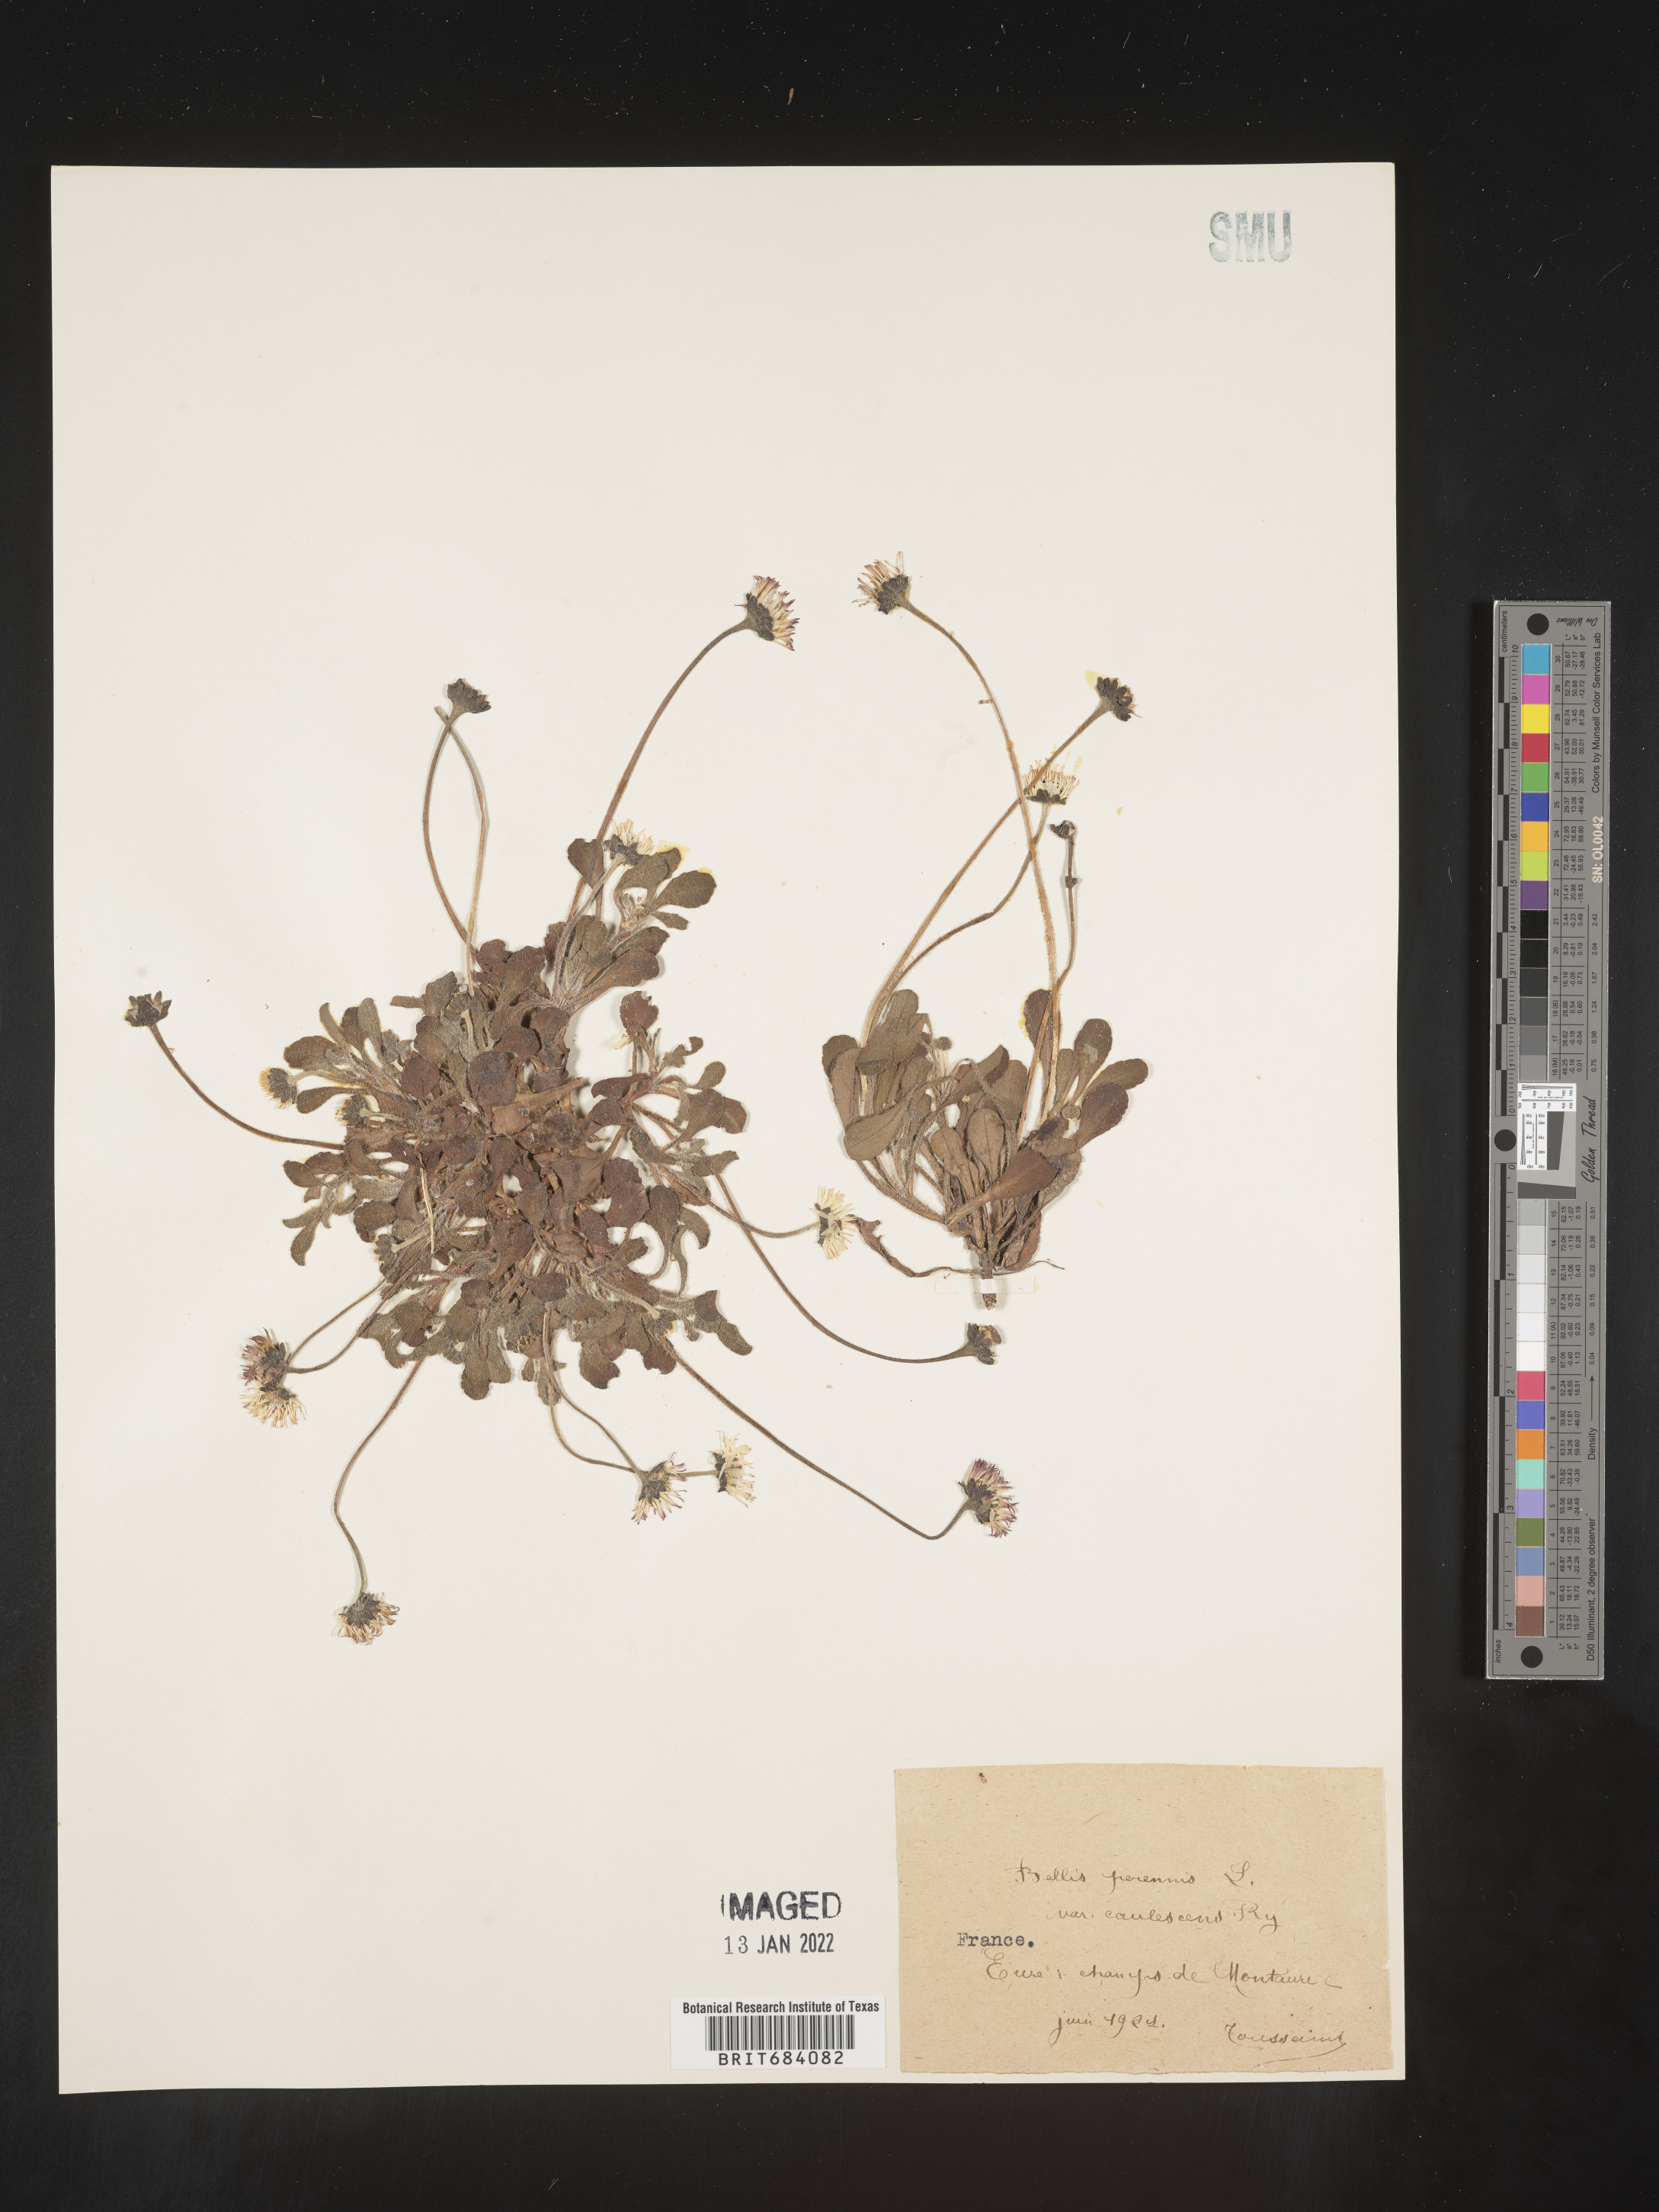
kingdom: Plantae
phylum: Tracheophyta
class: Magnoliopsida
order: Asterales
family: Asteraceae
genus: Bellis
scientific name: Bellis
